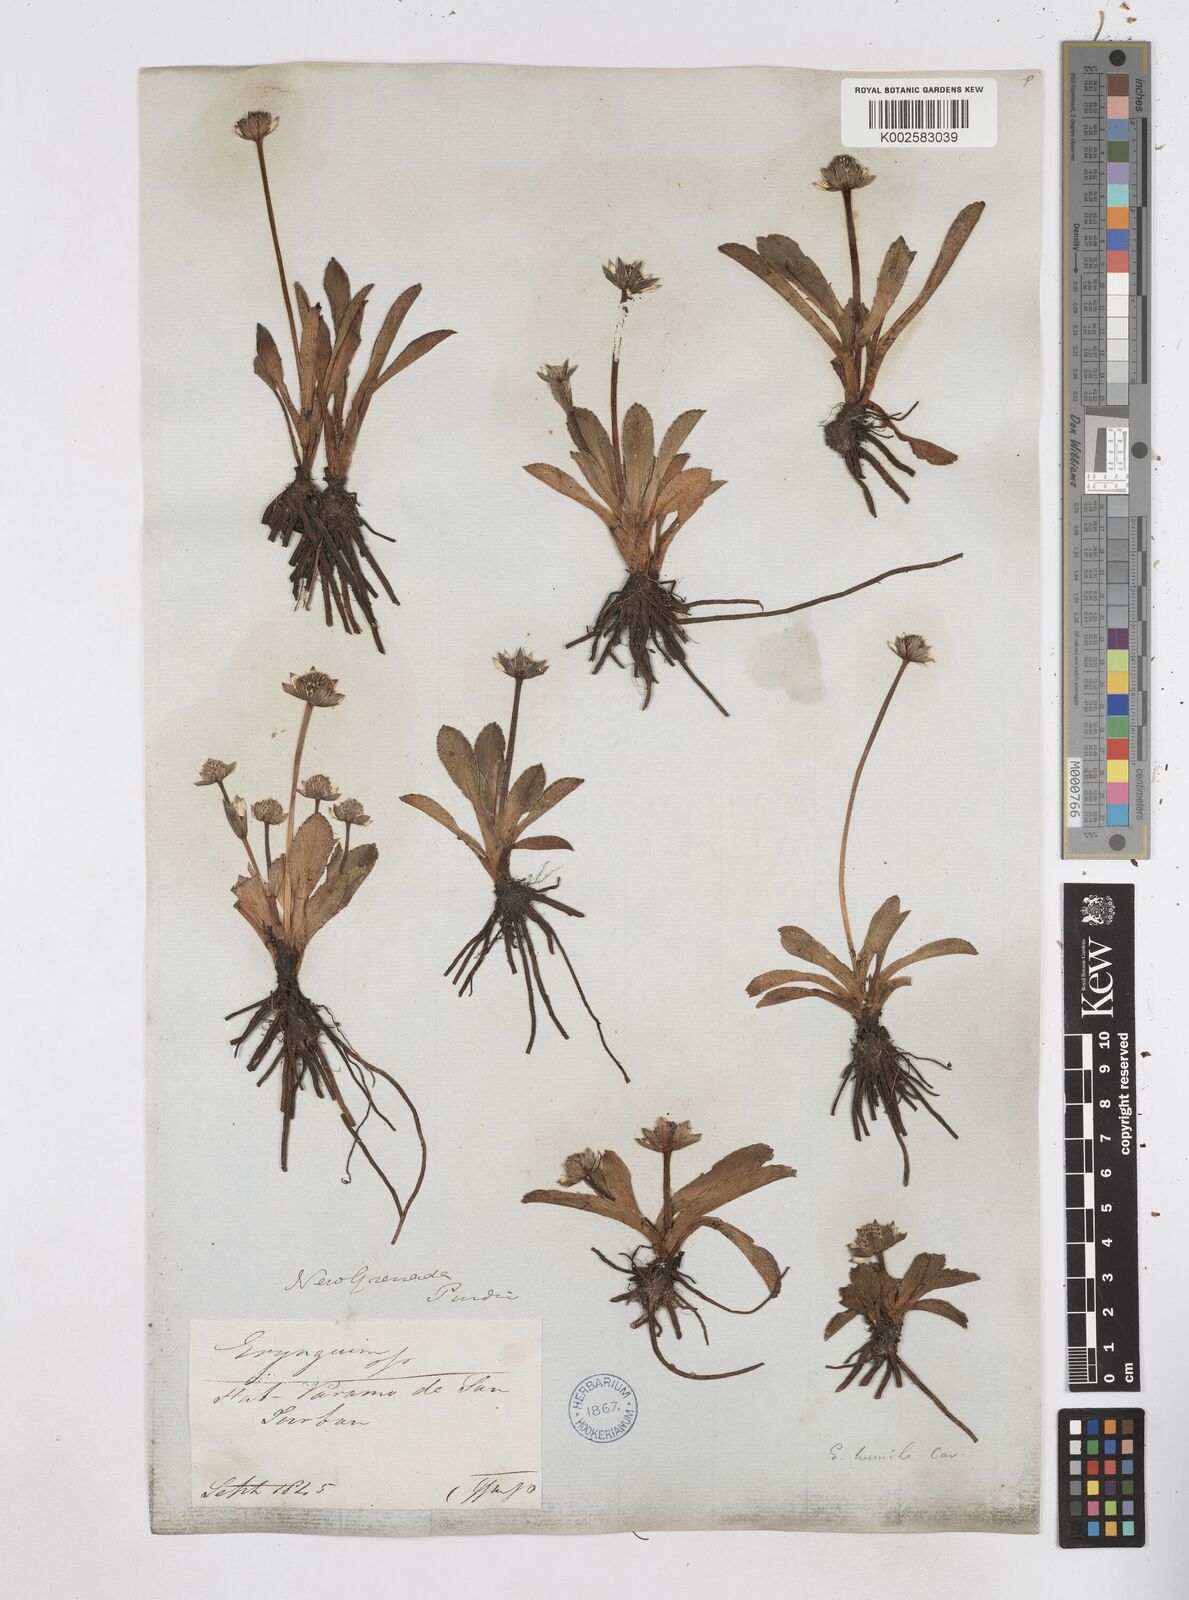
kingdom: Plantae
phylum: Tracheophyta
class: Magnoliopsida
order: Apiales
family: Apiaceae
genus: Eryngium
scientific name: Eryngium humile
